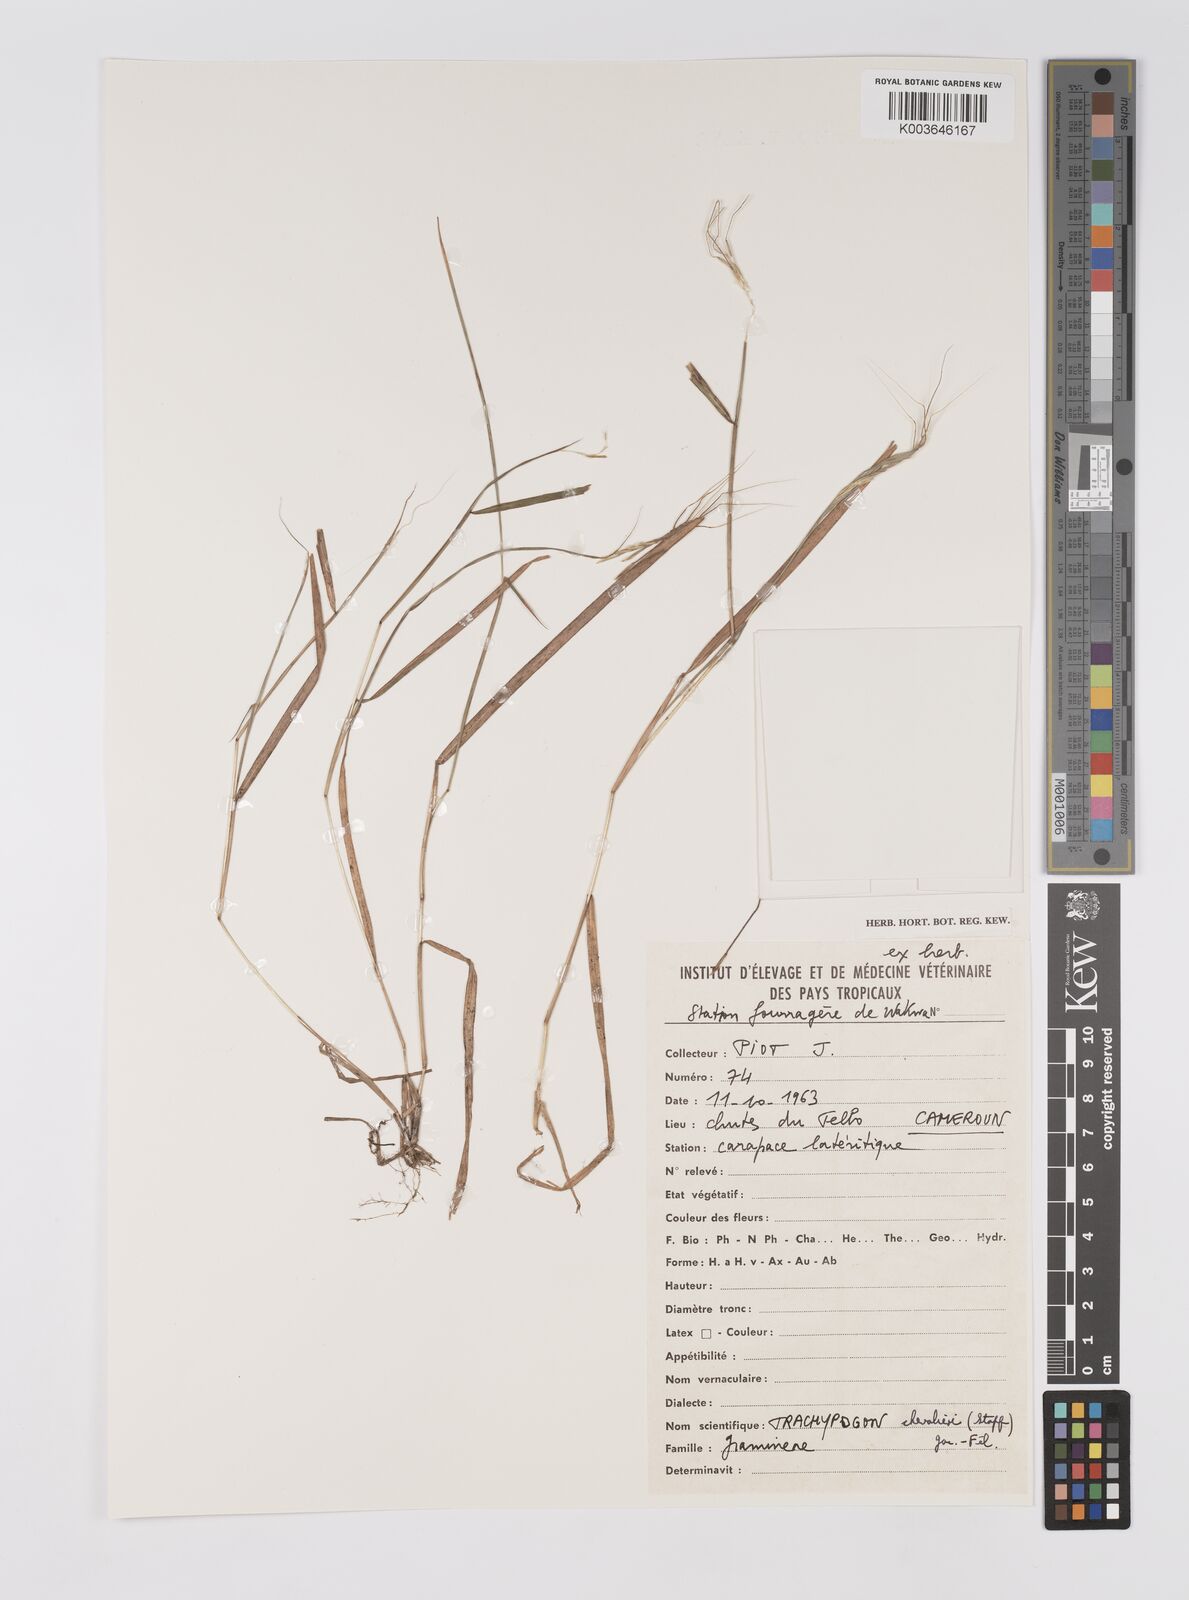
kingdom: Plantae
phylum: Tracheophyta
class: Liliopsida
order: Poales
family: Poaceae
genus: Trachypogon
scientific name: Trachypogon chevalieri
